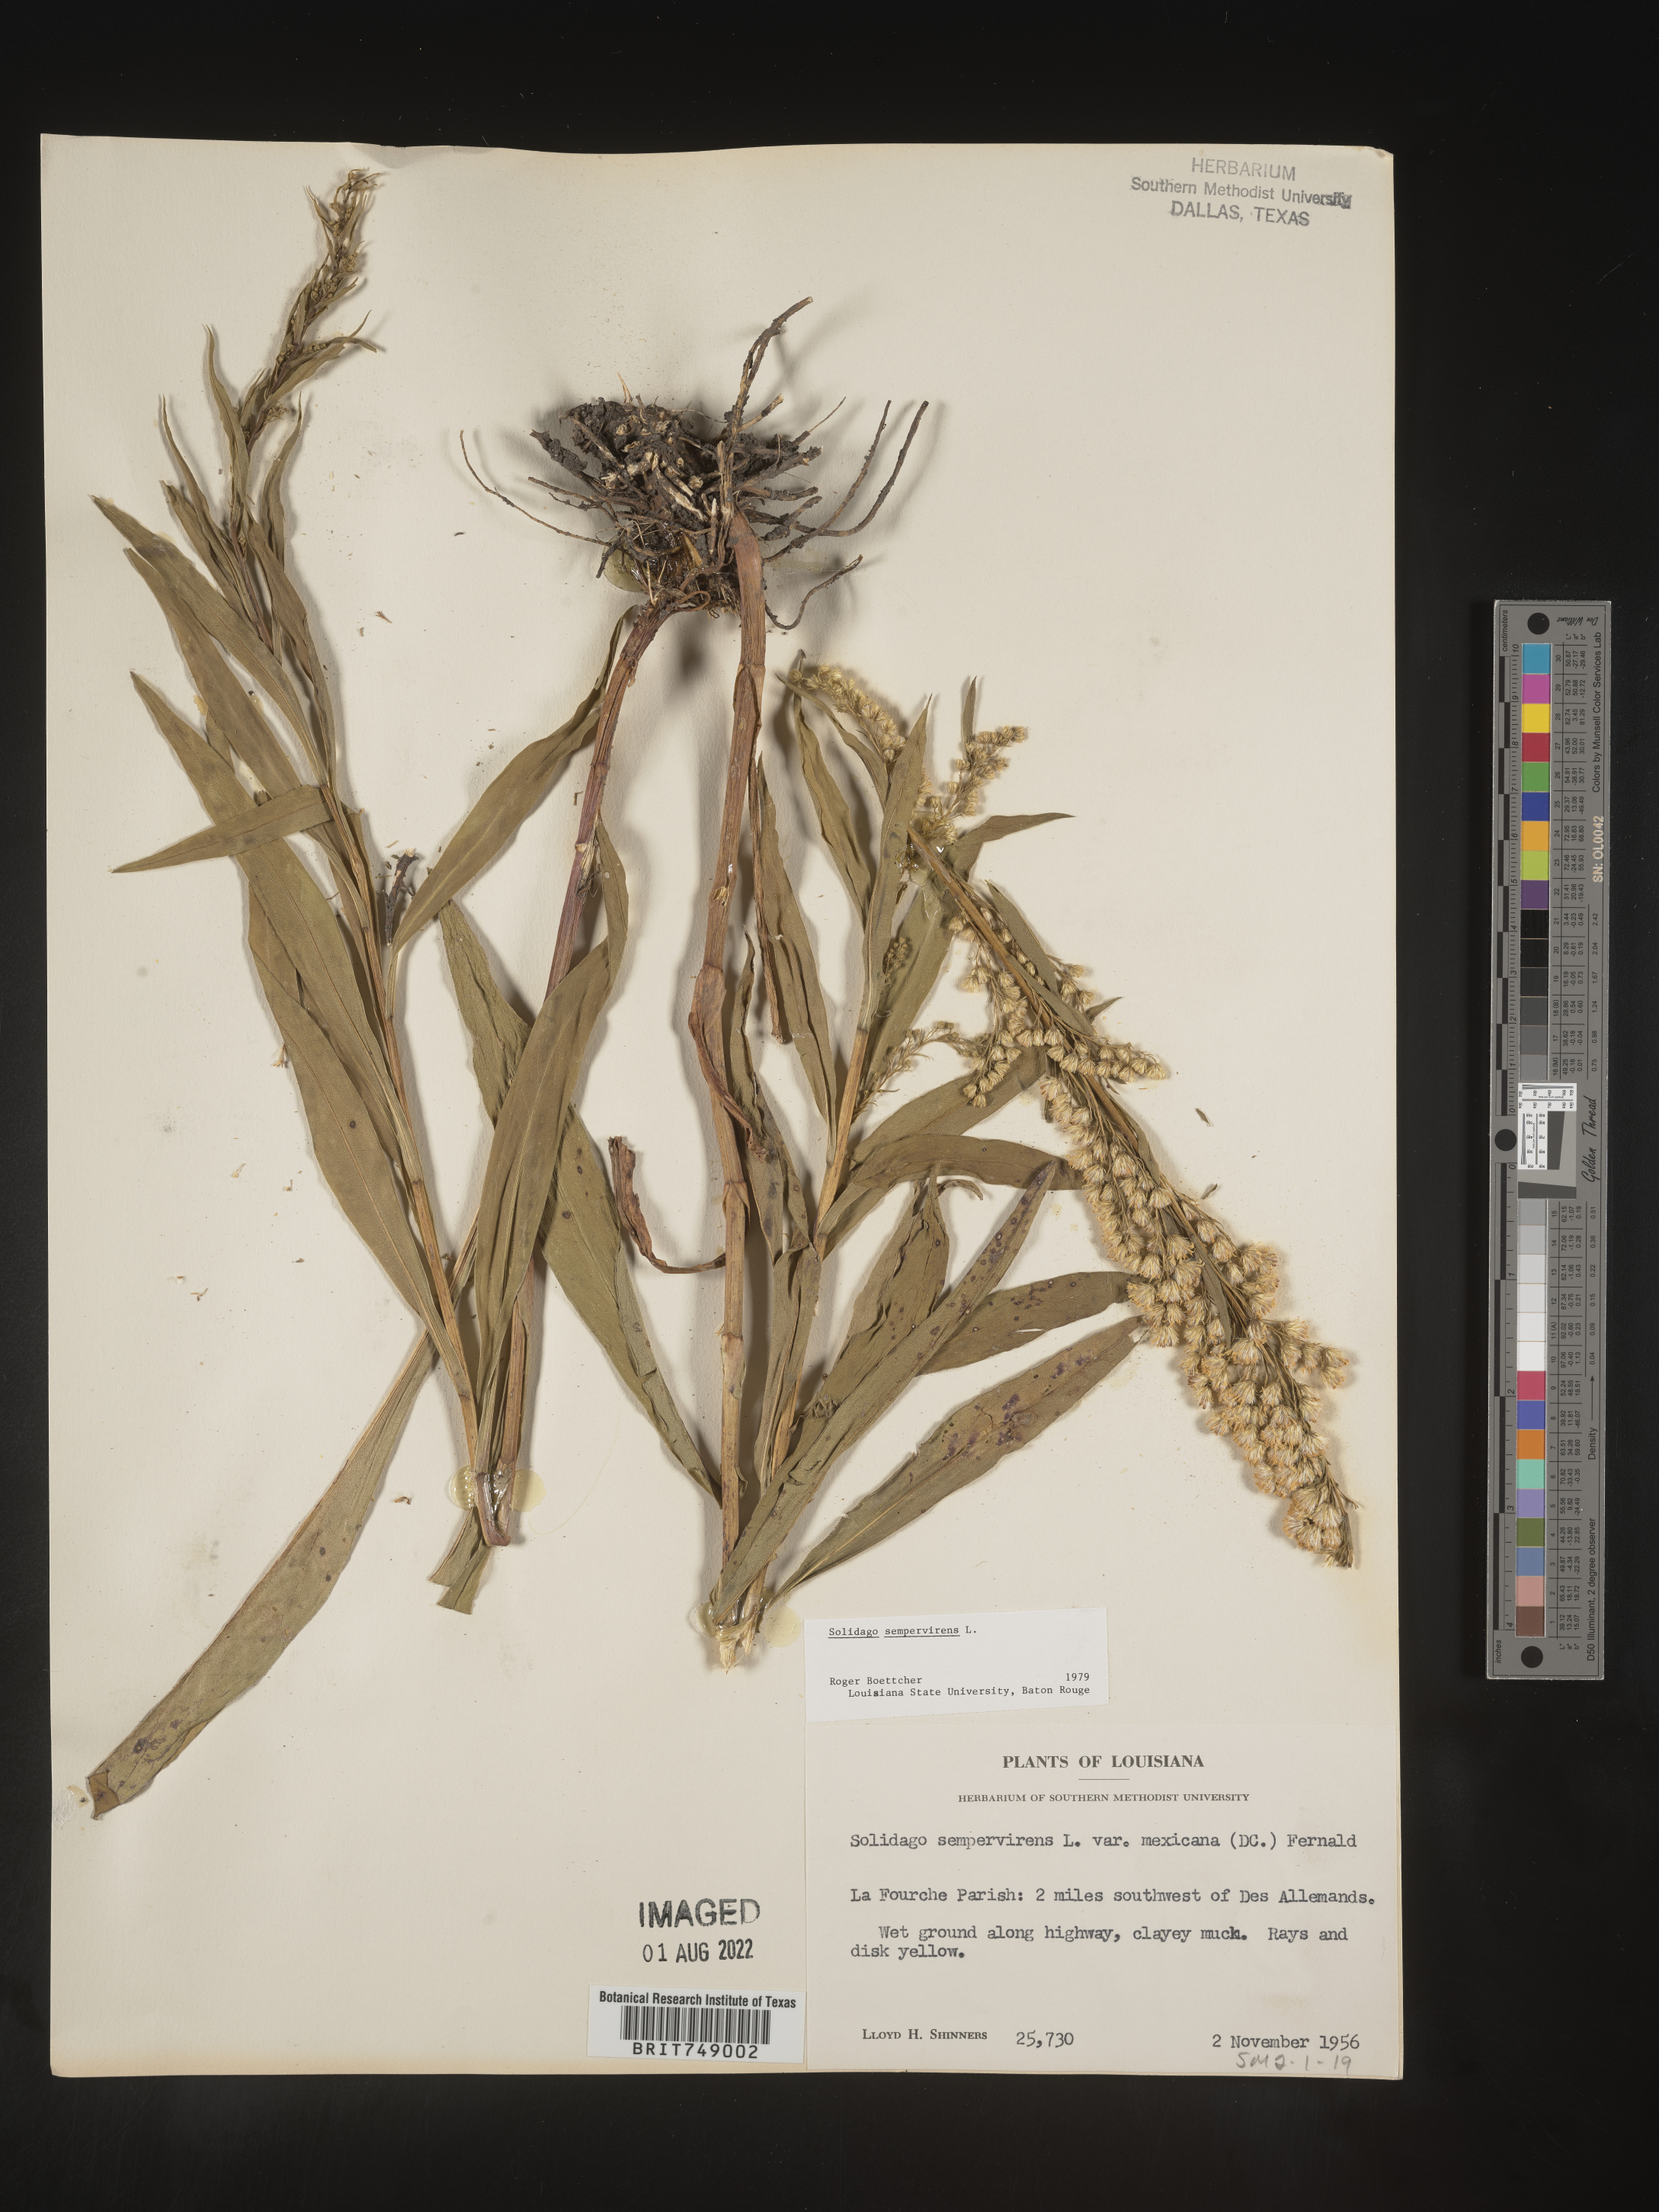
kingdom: Plantae
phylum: Tracheophyta
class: Magnoliopsida
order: Asterales
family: Asteraceae
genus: Solidago
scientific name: Solidago sempervirens
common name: Salt-marsh goldenrod
